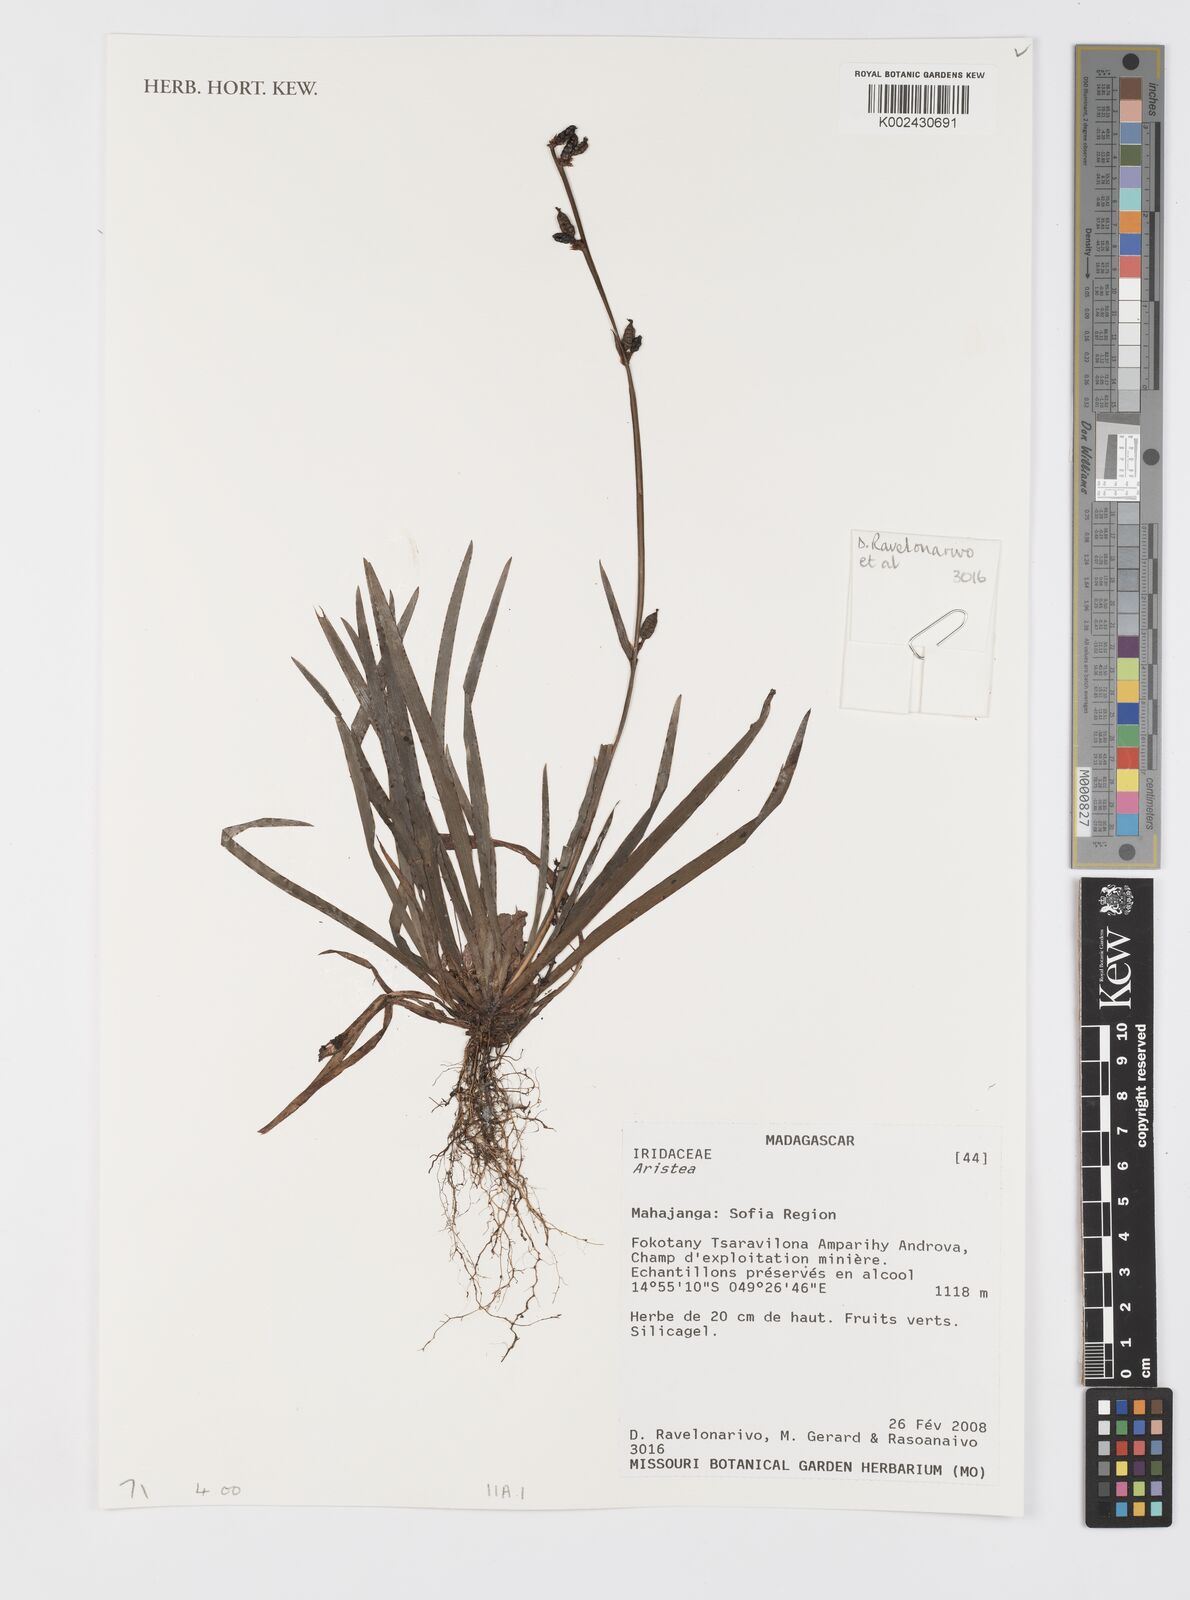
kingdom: Plantae
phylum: Tracheophyta
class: Liliopsida
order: Asparagales
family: Iridaceae
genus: Aristea
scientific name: Aristea
